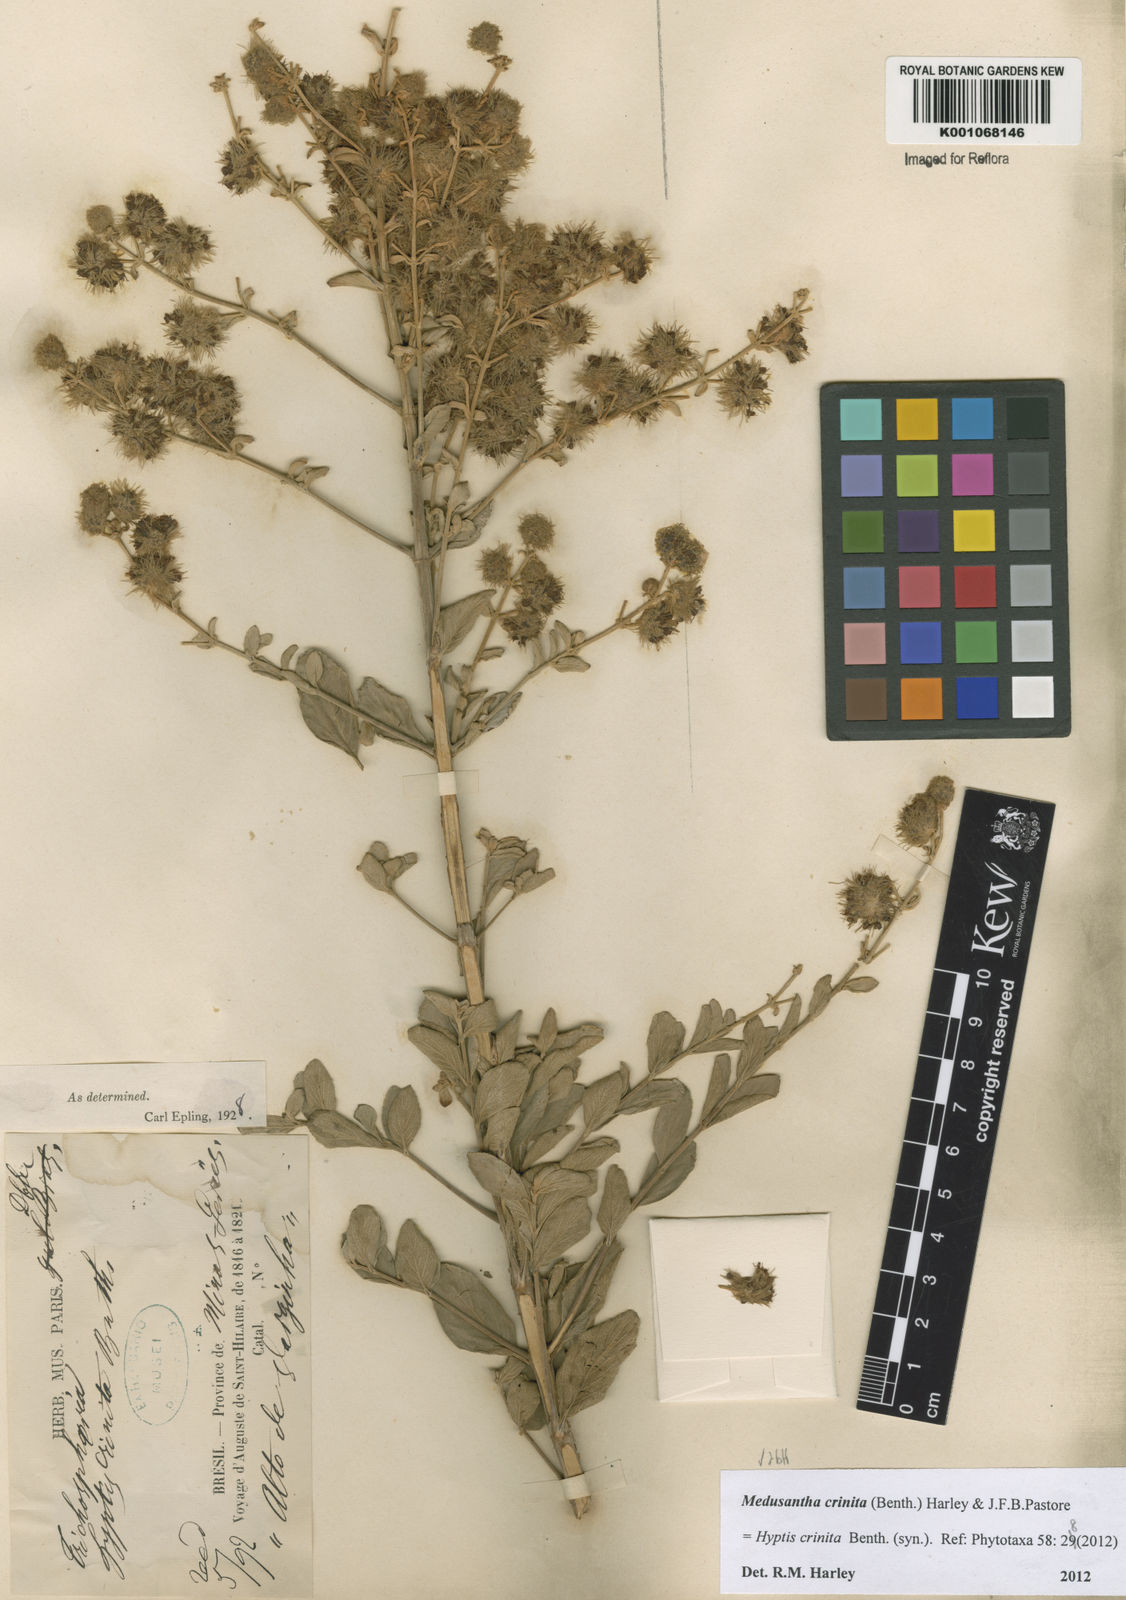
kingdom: Plantae
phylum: Tracheophyta
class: Magnoliopsida
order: Lamiales
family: Lamiaceae
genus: Medusantha
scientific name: Medusantha crinita
